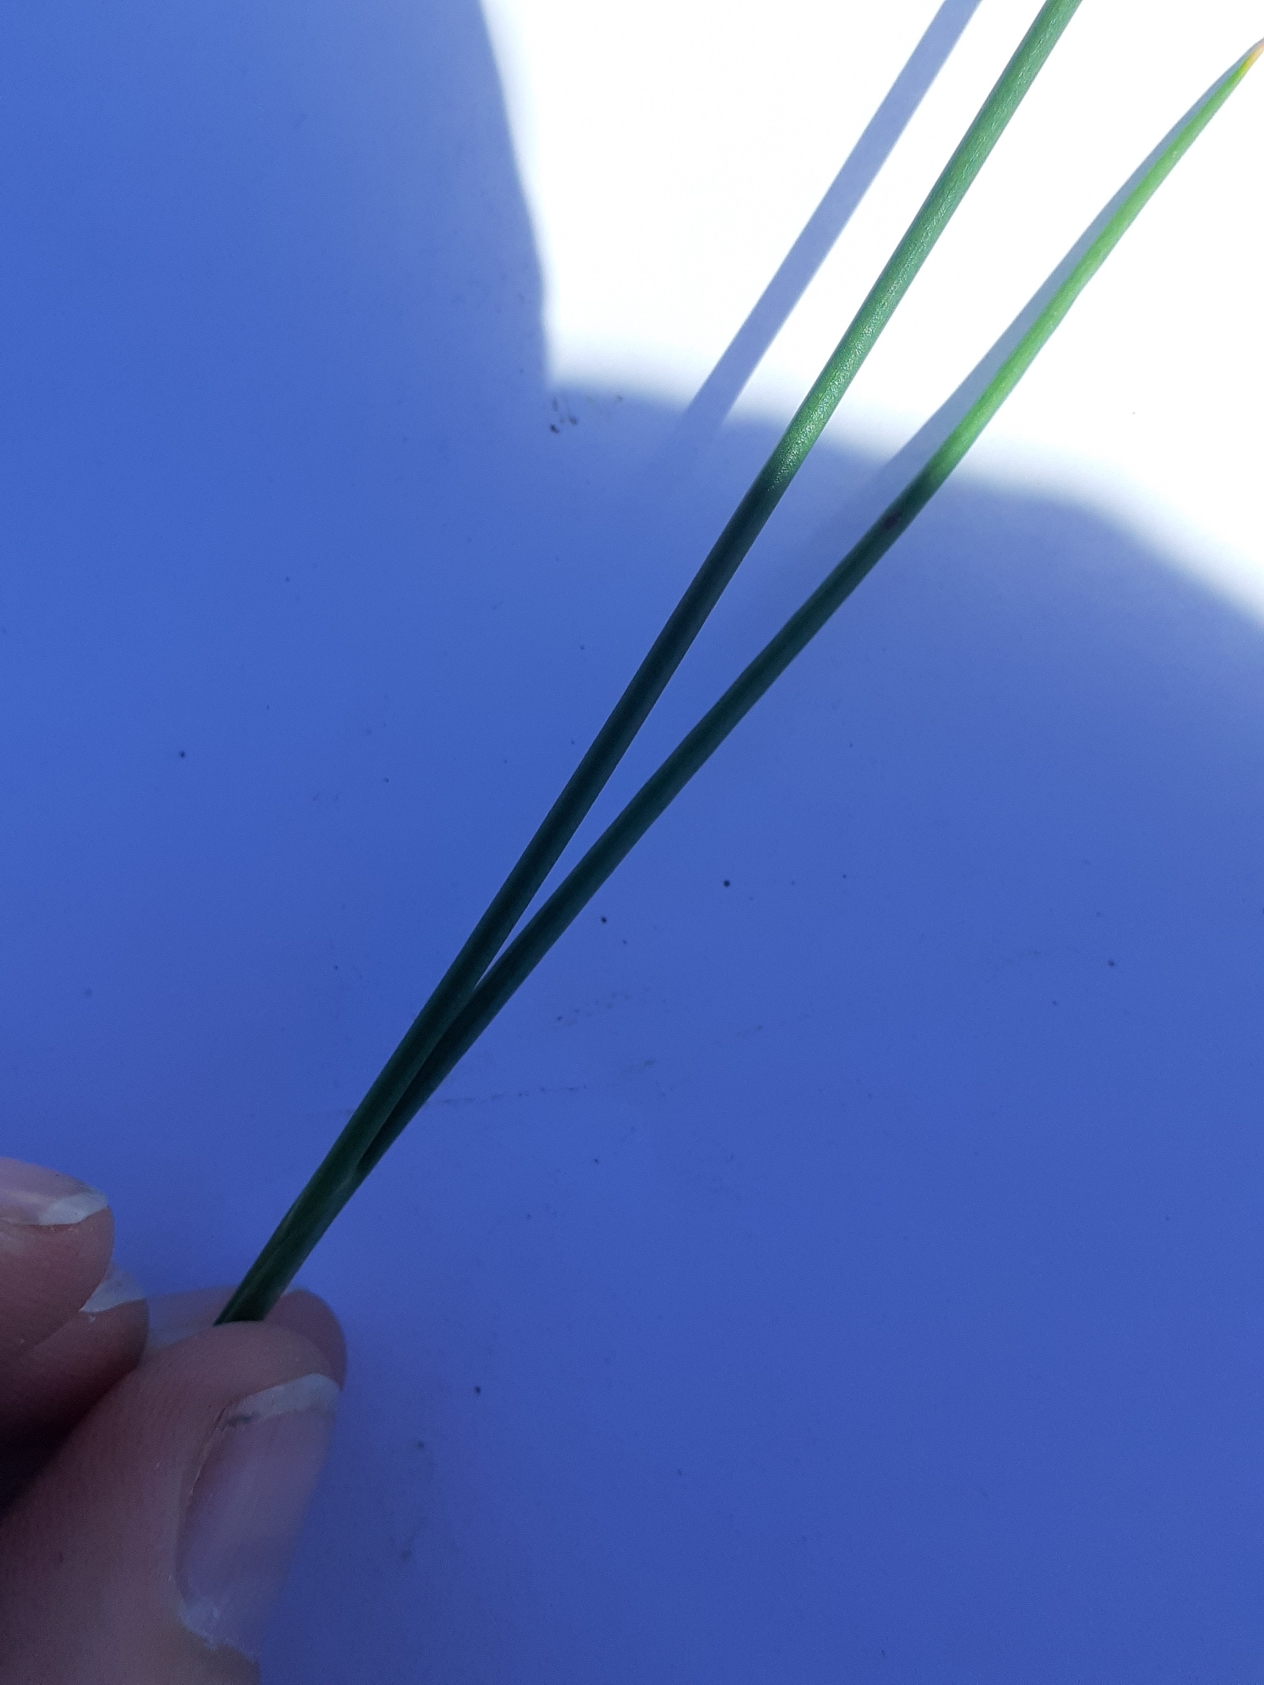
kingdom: Plantae
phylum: Tracheophyta
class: Liliopsida
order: Poales
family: Juncaceae
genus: Juncus
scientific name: Juncus articulatus
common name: Glanskapslet siv
